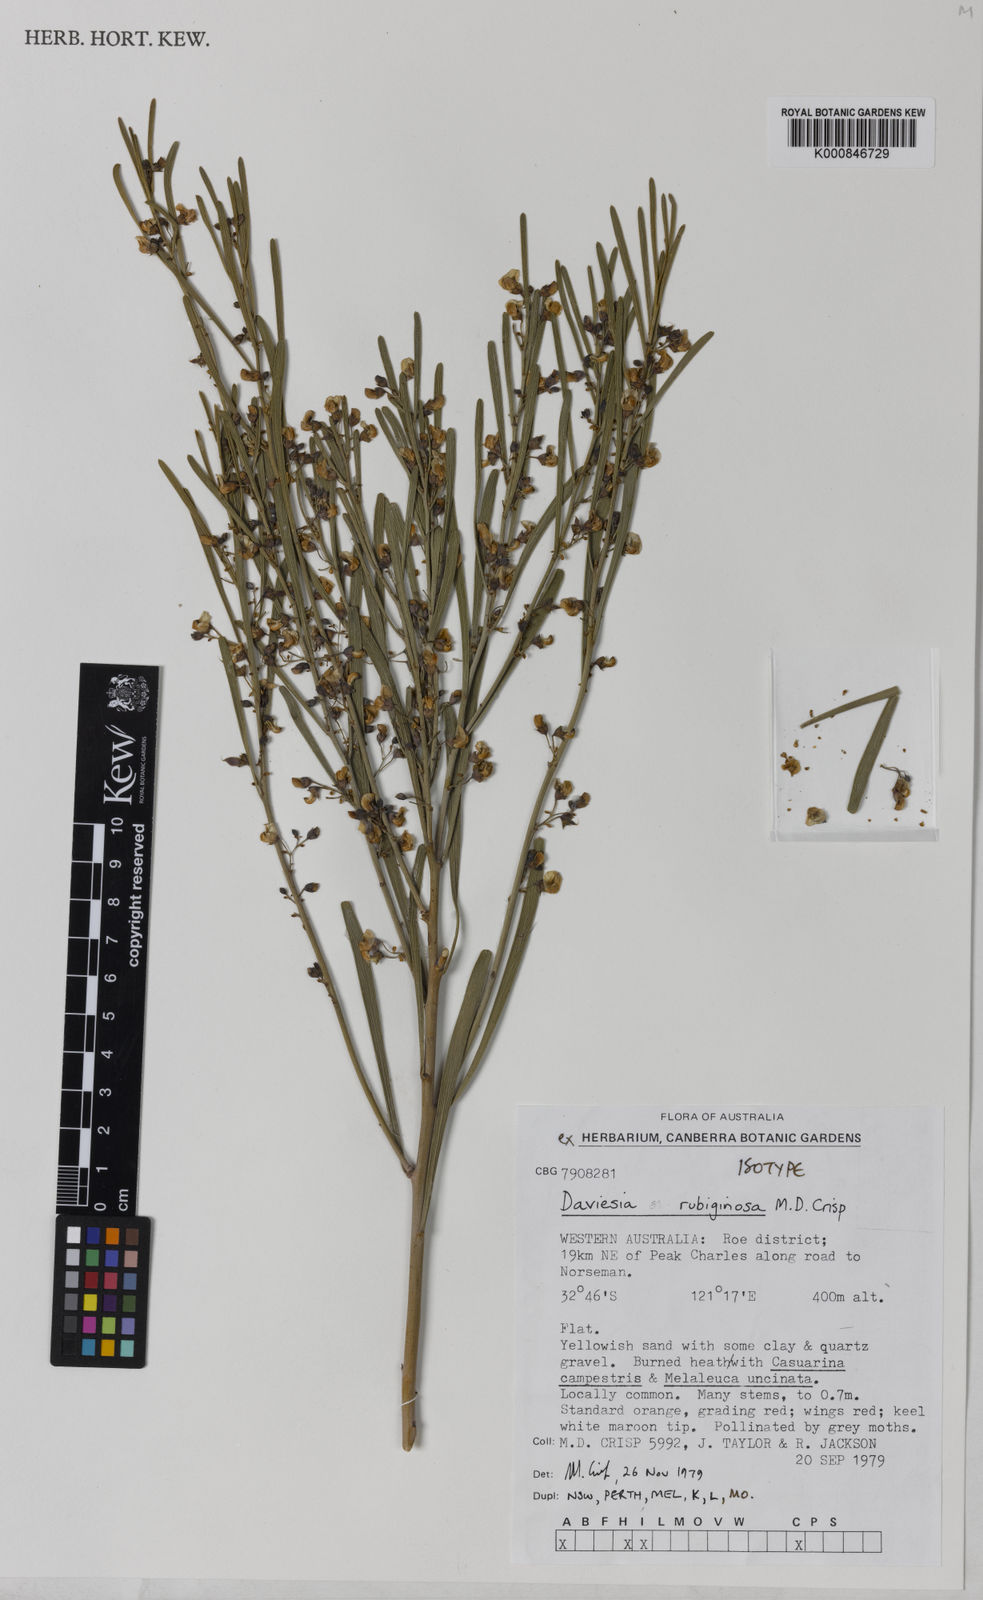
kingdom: Plantae
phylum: Tracheophyta
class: Magnoliopsida
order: Fabales
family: Fabaceae
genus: Daviesia
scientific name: Daviesia rubiginosa
